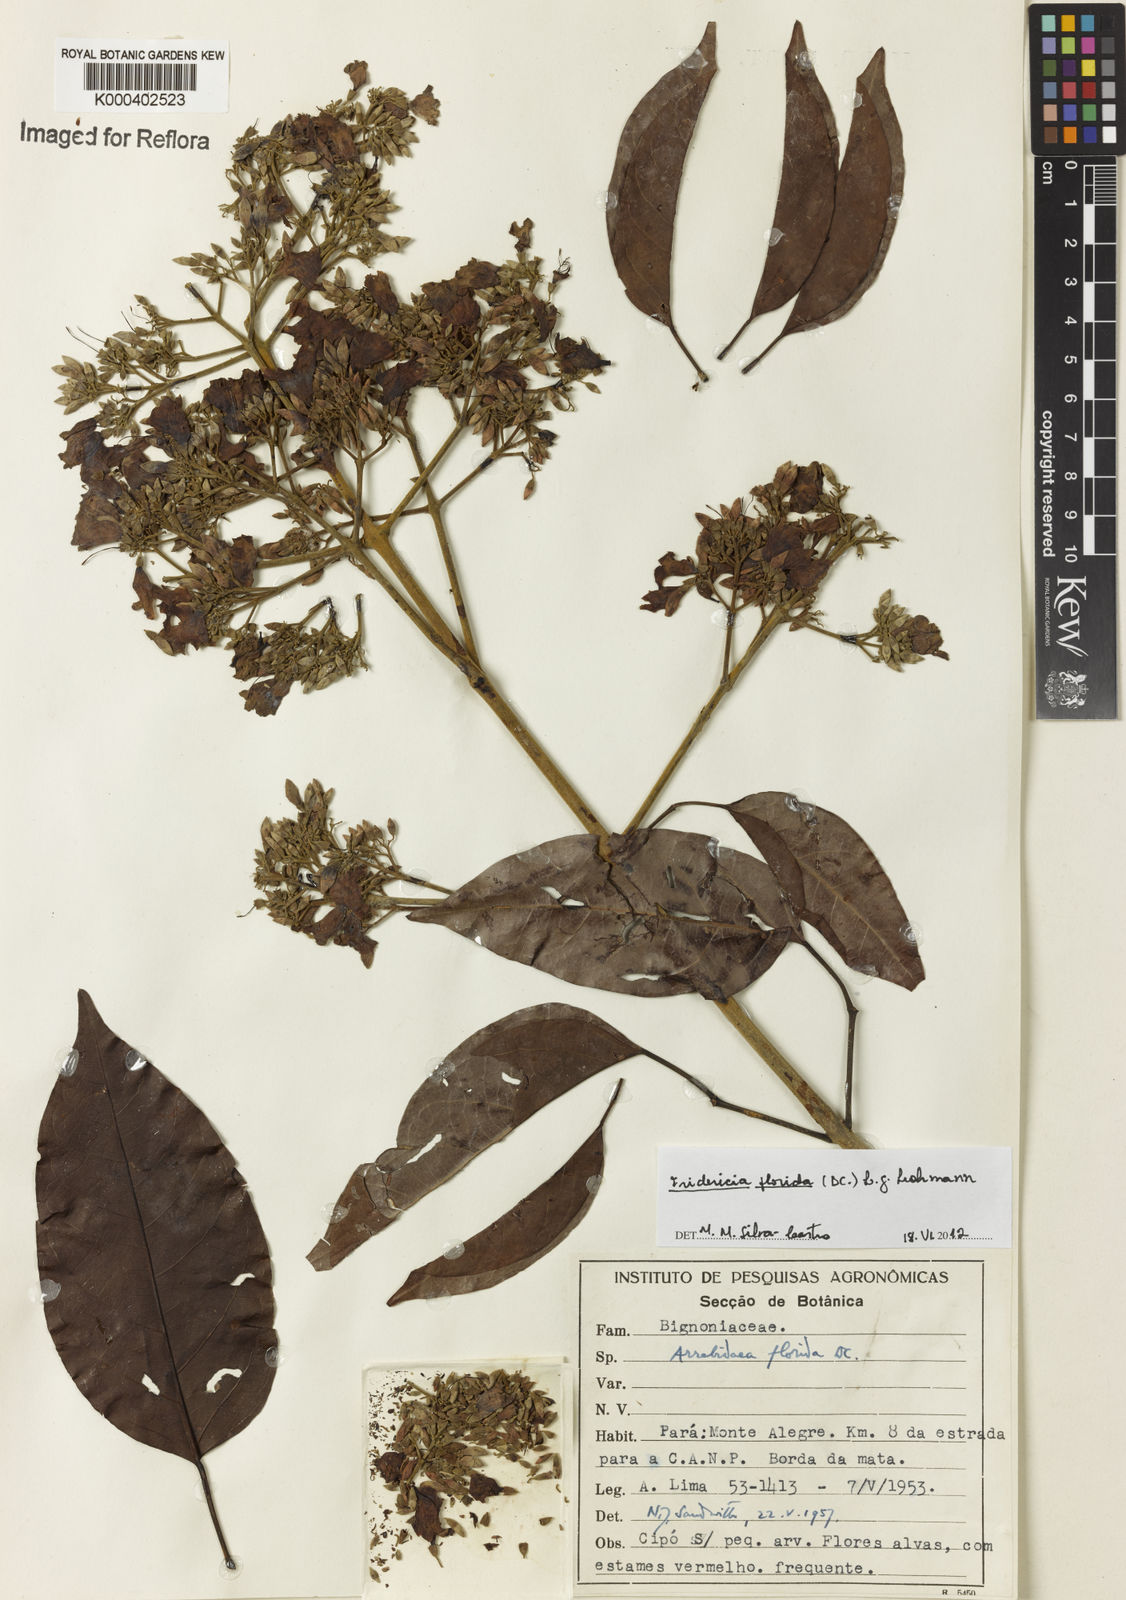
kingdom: Plantae
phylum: Tracheophyta
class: Magnoliopsida
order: Lamiales
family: Bignoniaceae
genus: Fridericia
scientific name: Fridericia florida
